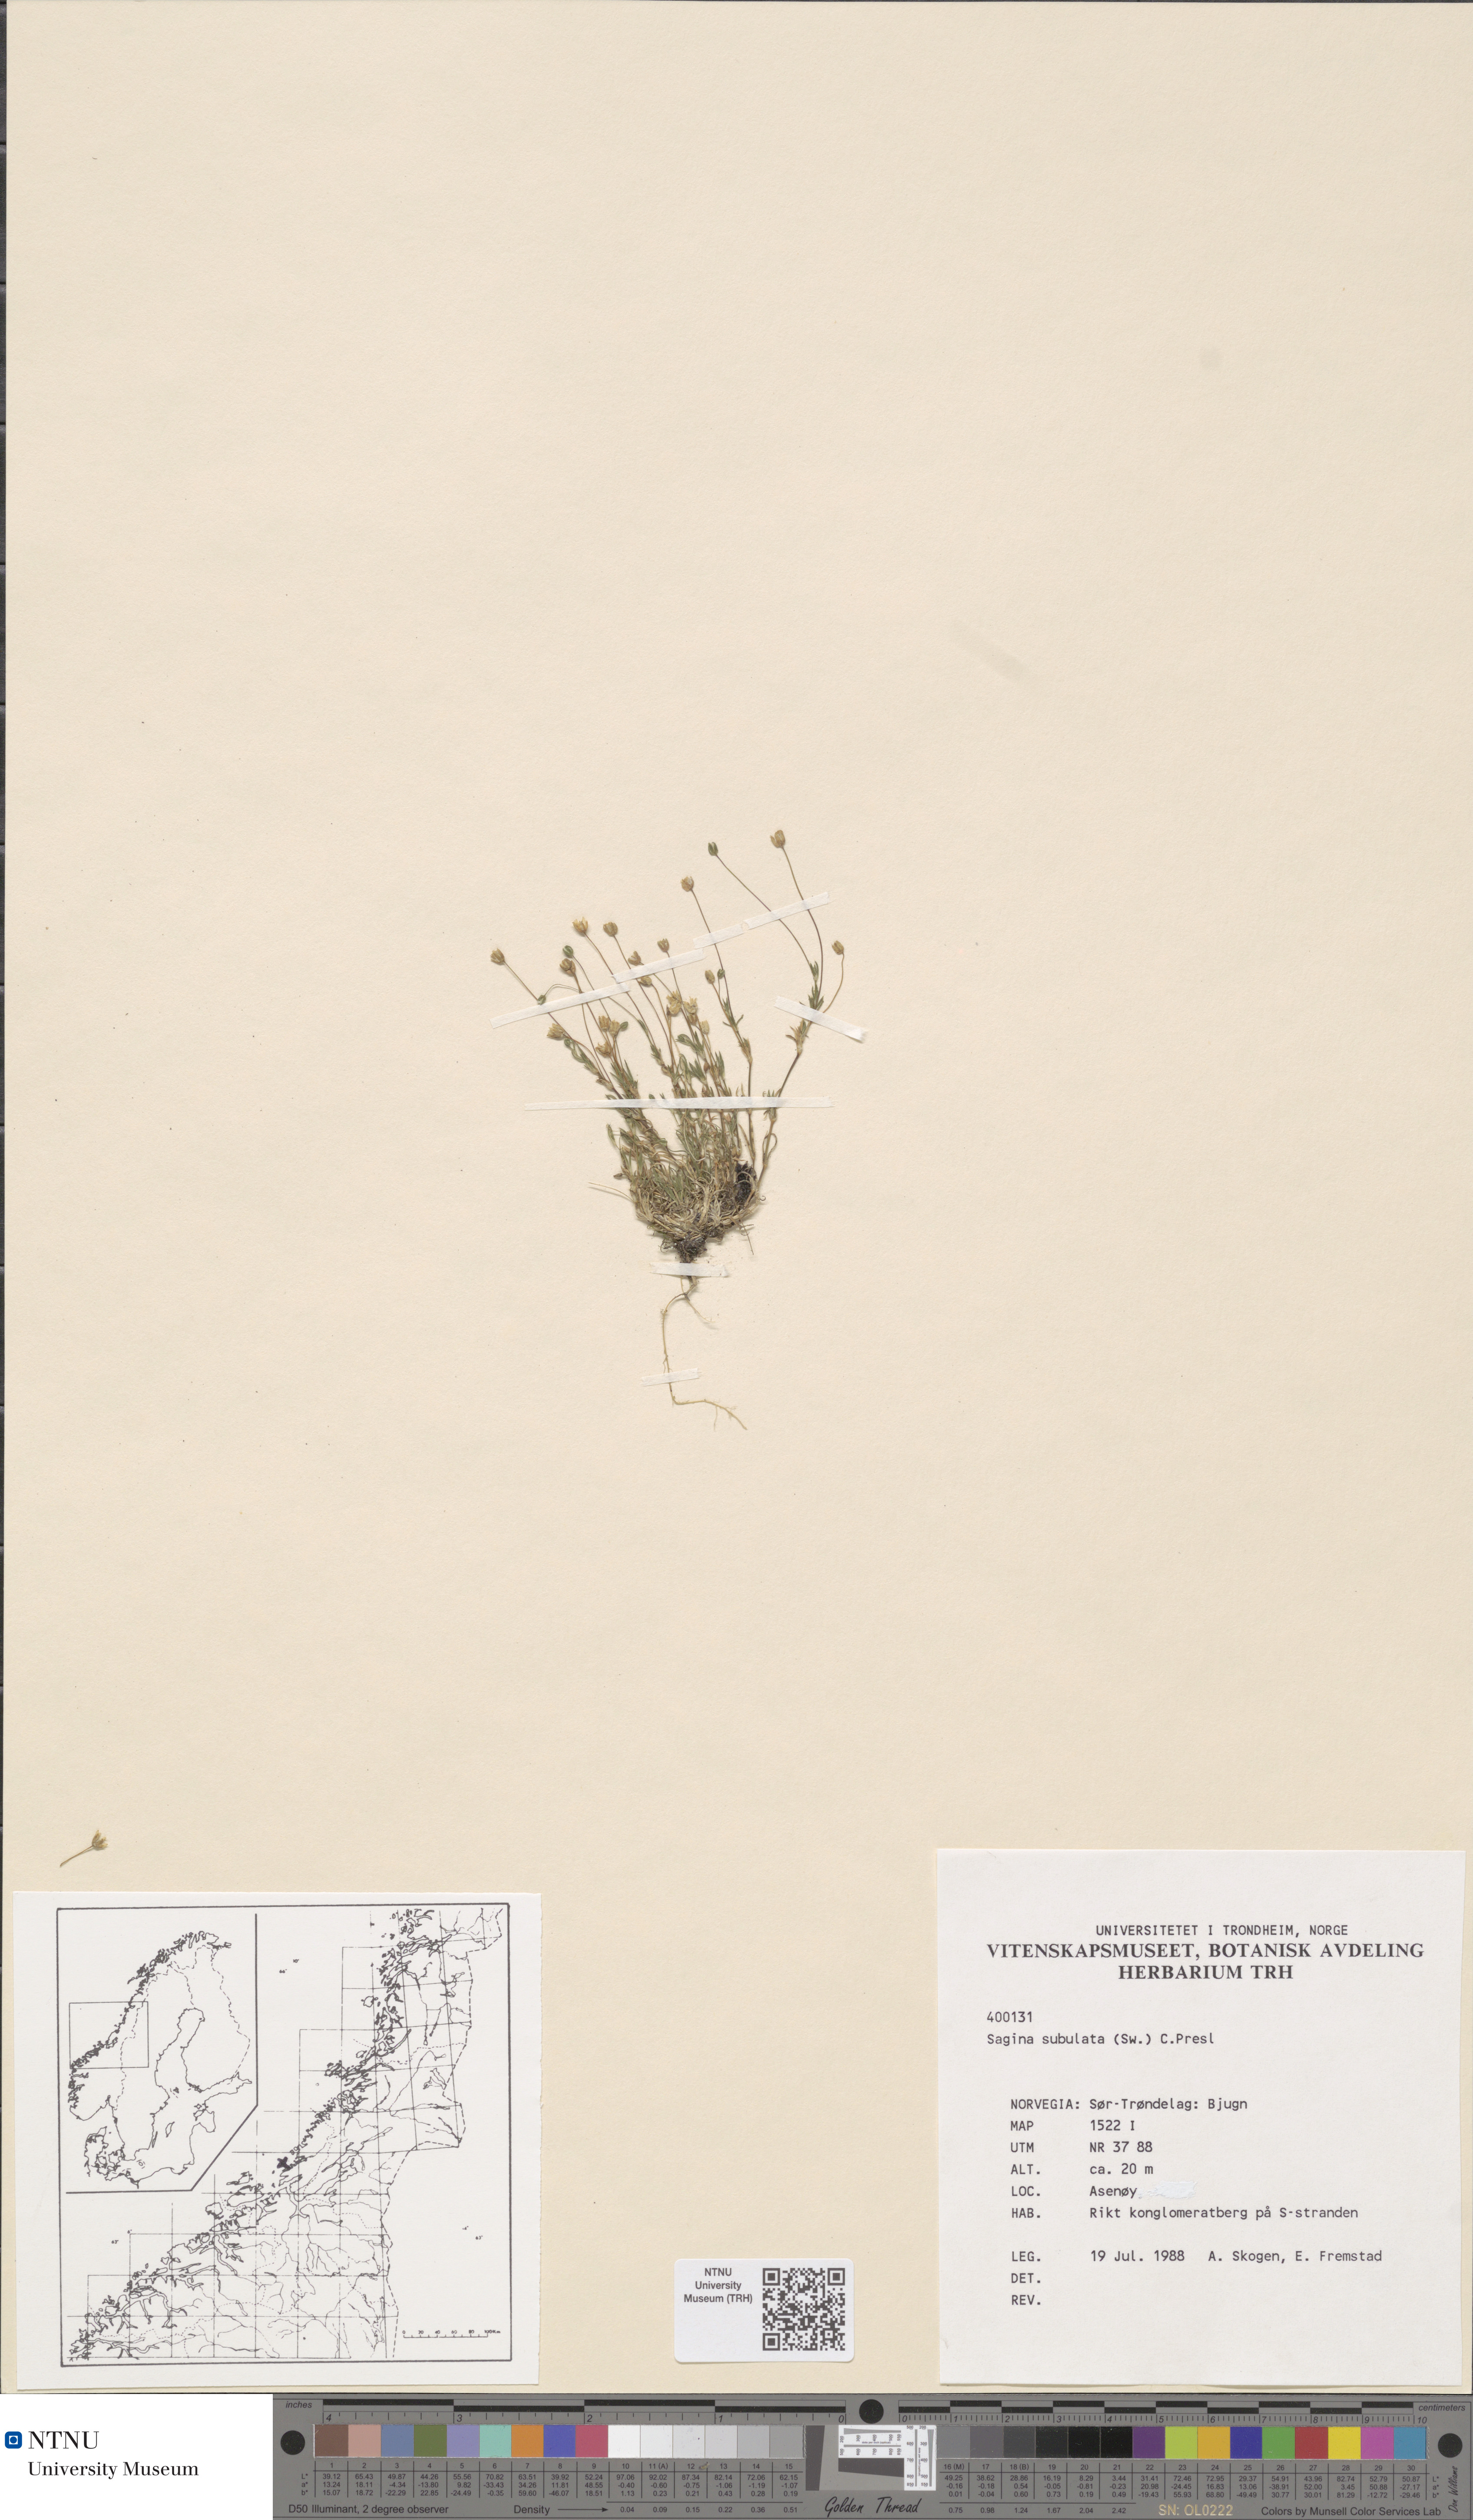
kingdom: Plantae
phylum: Tracheophyta
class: Magnoliopsida
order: Caryophyllales
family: Caryophyllaceae
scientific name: Caryophyllaceae
